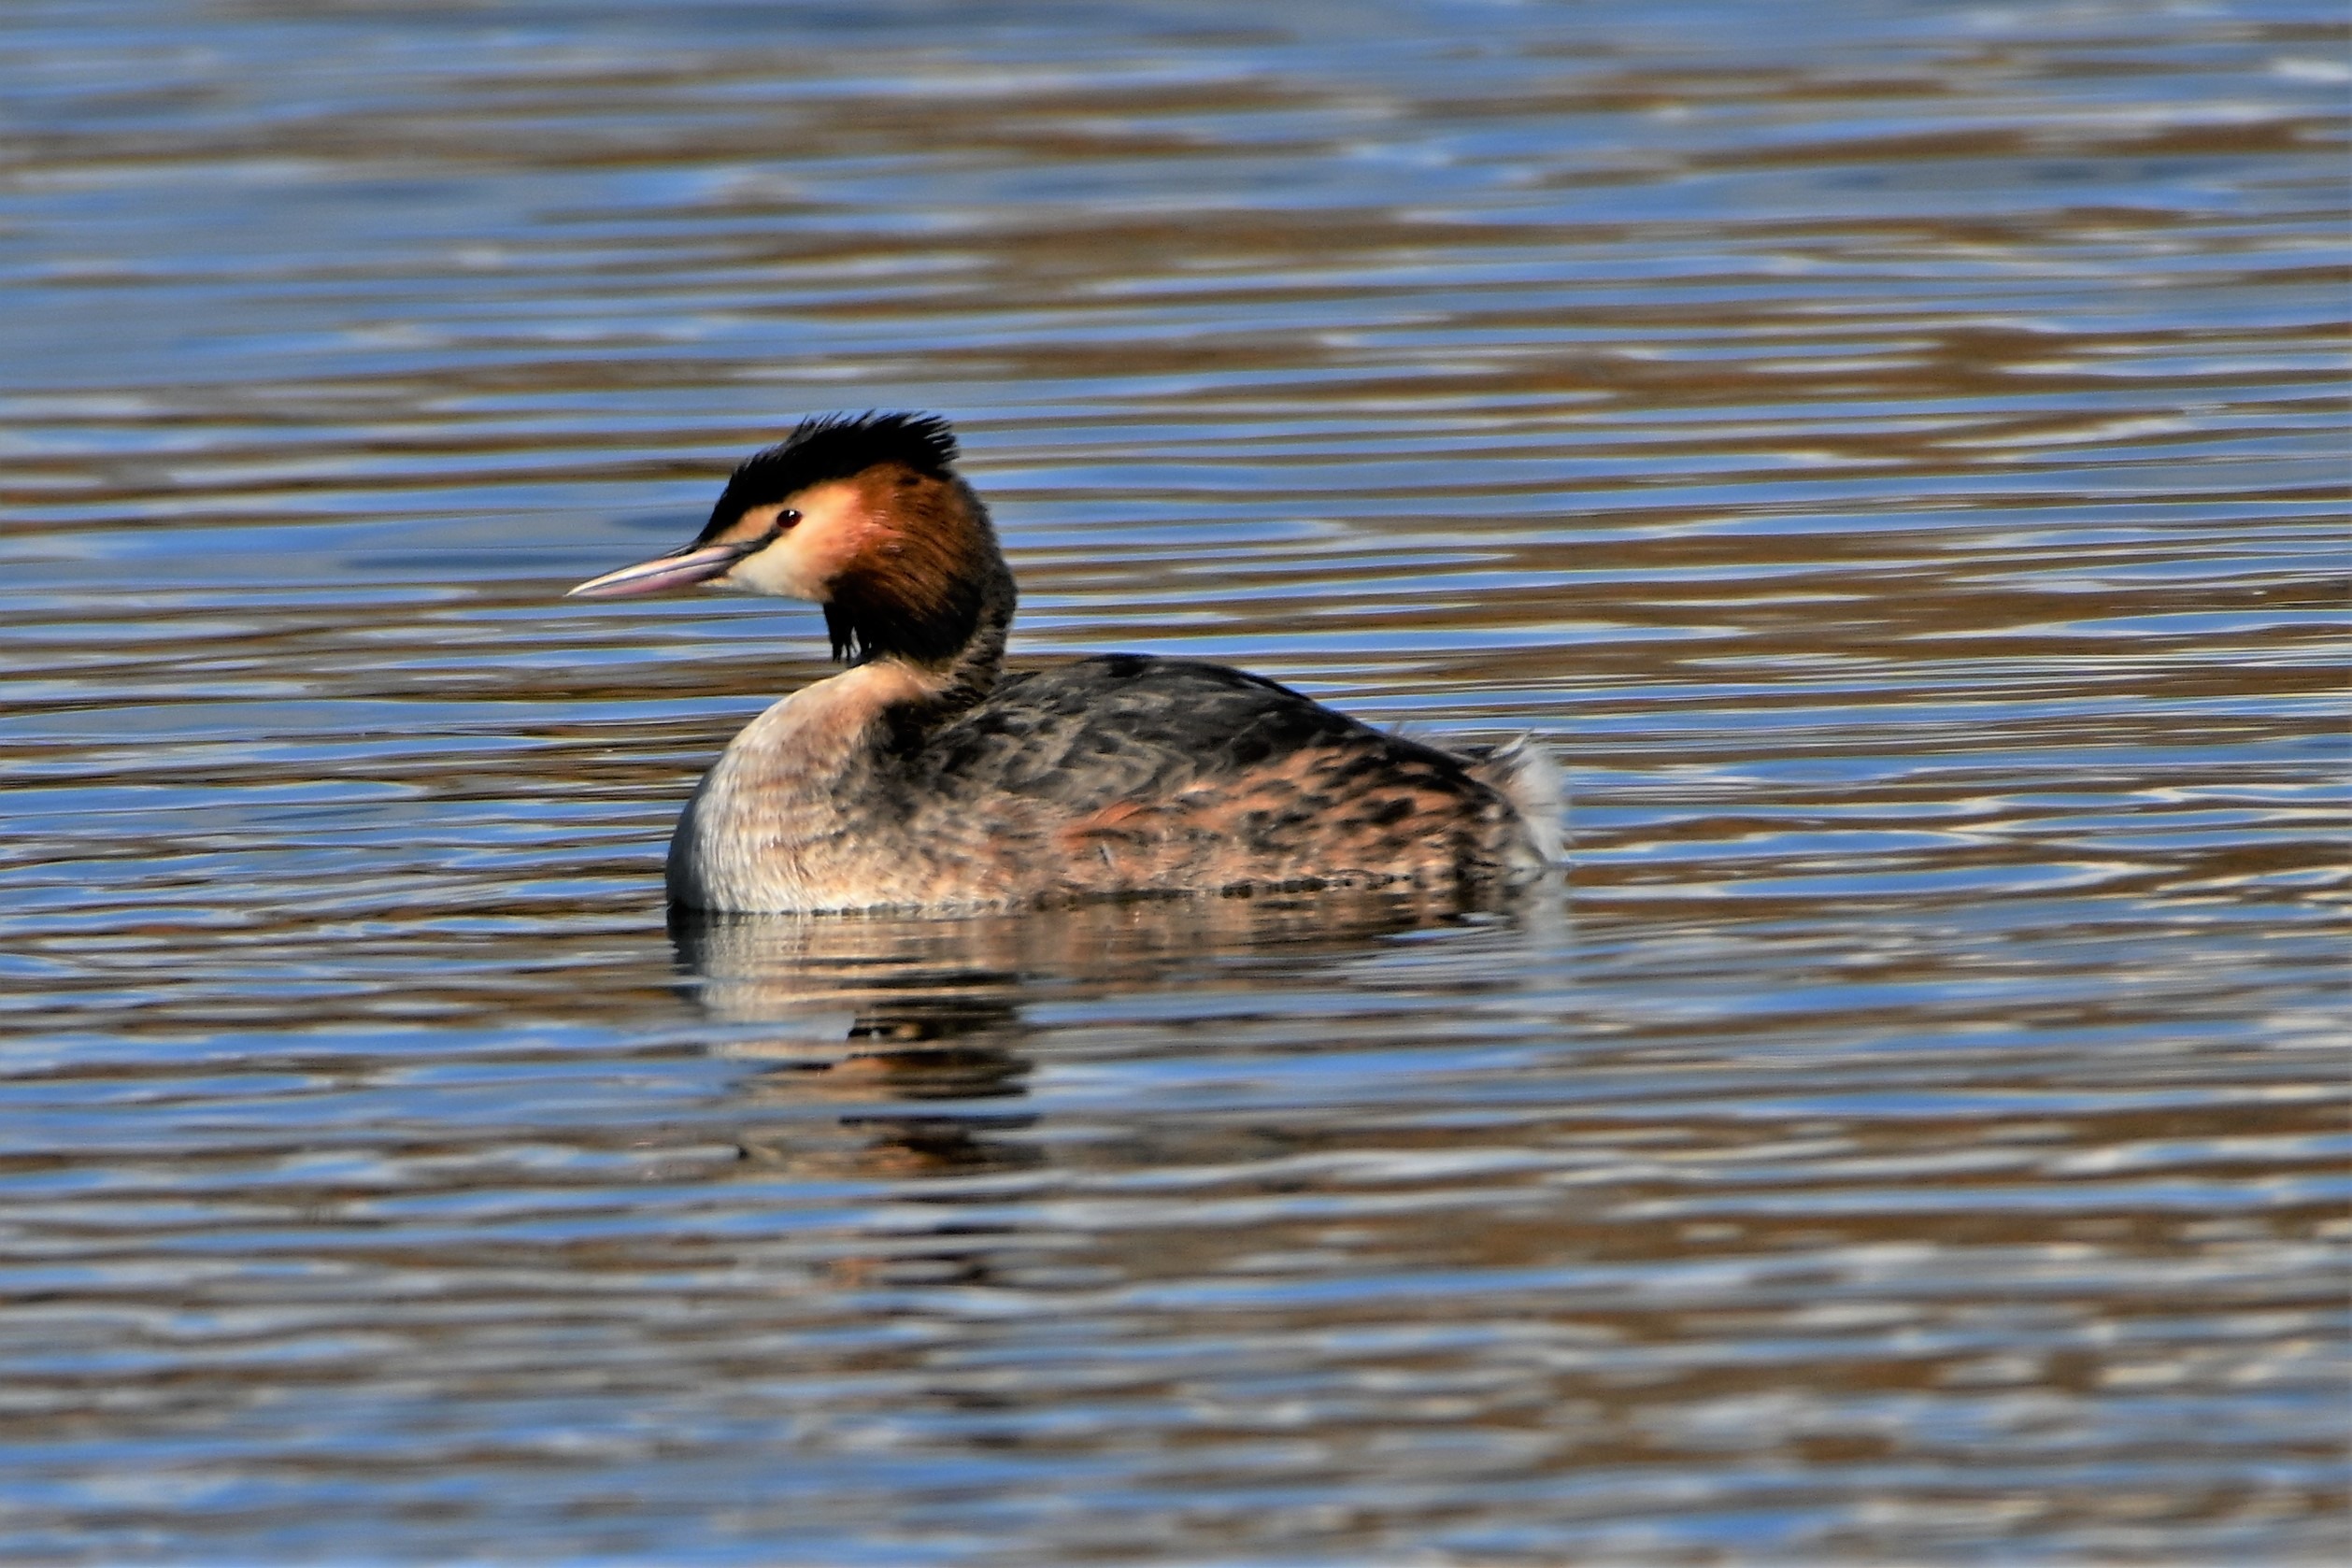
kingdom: Animalia
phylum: Chordata
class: Aves
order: Podicipediformes
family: Podicipedidae
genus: Podiceps
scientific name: Podiceps cristatus
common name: Toppet lappedykker
